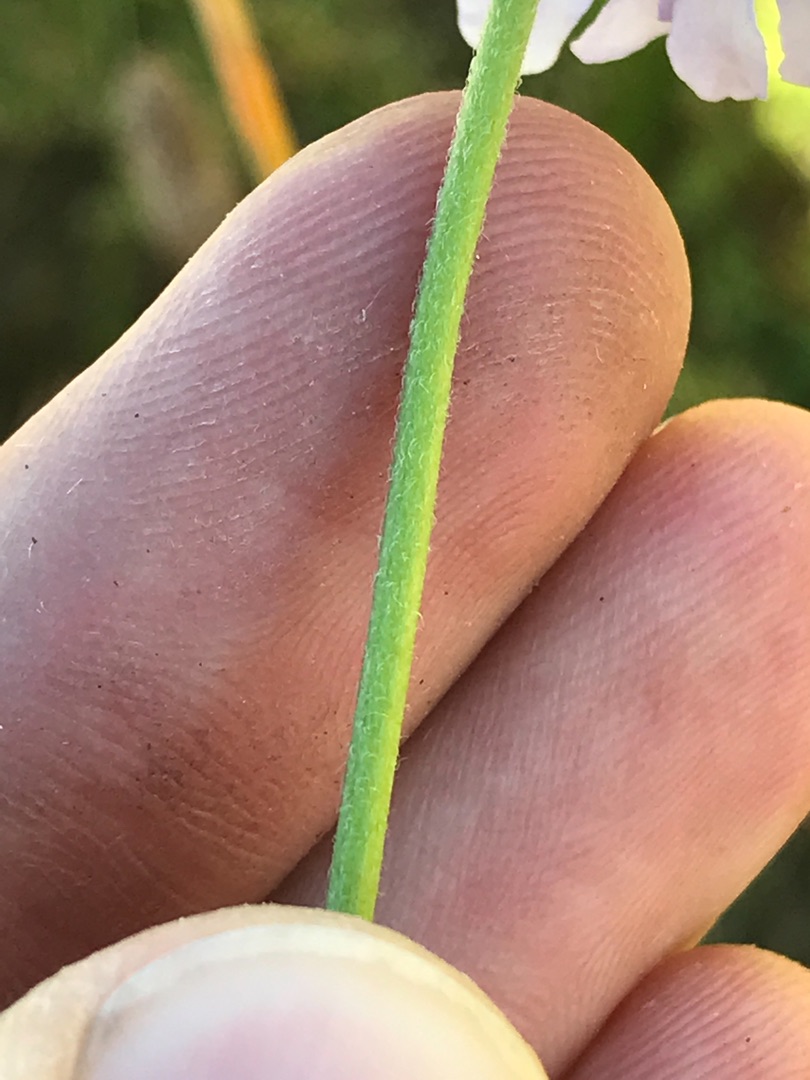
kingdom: Plantae
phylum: Tracheophyta
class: Magnoliopsida
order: Dipsacales
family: Caprifoliaceae
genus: Scabiosa
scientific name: Scabiosa columbaria
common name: Due-skabiose
